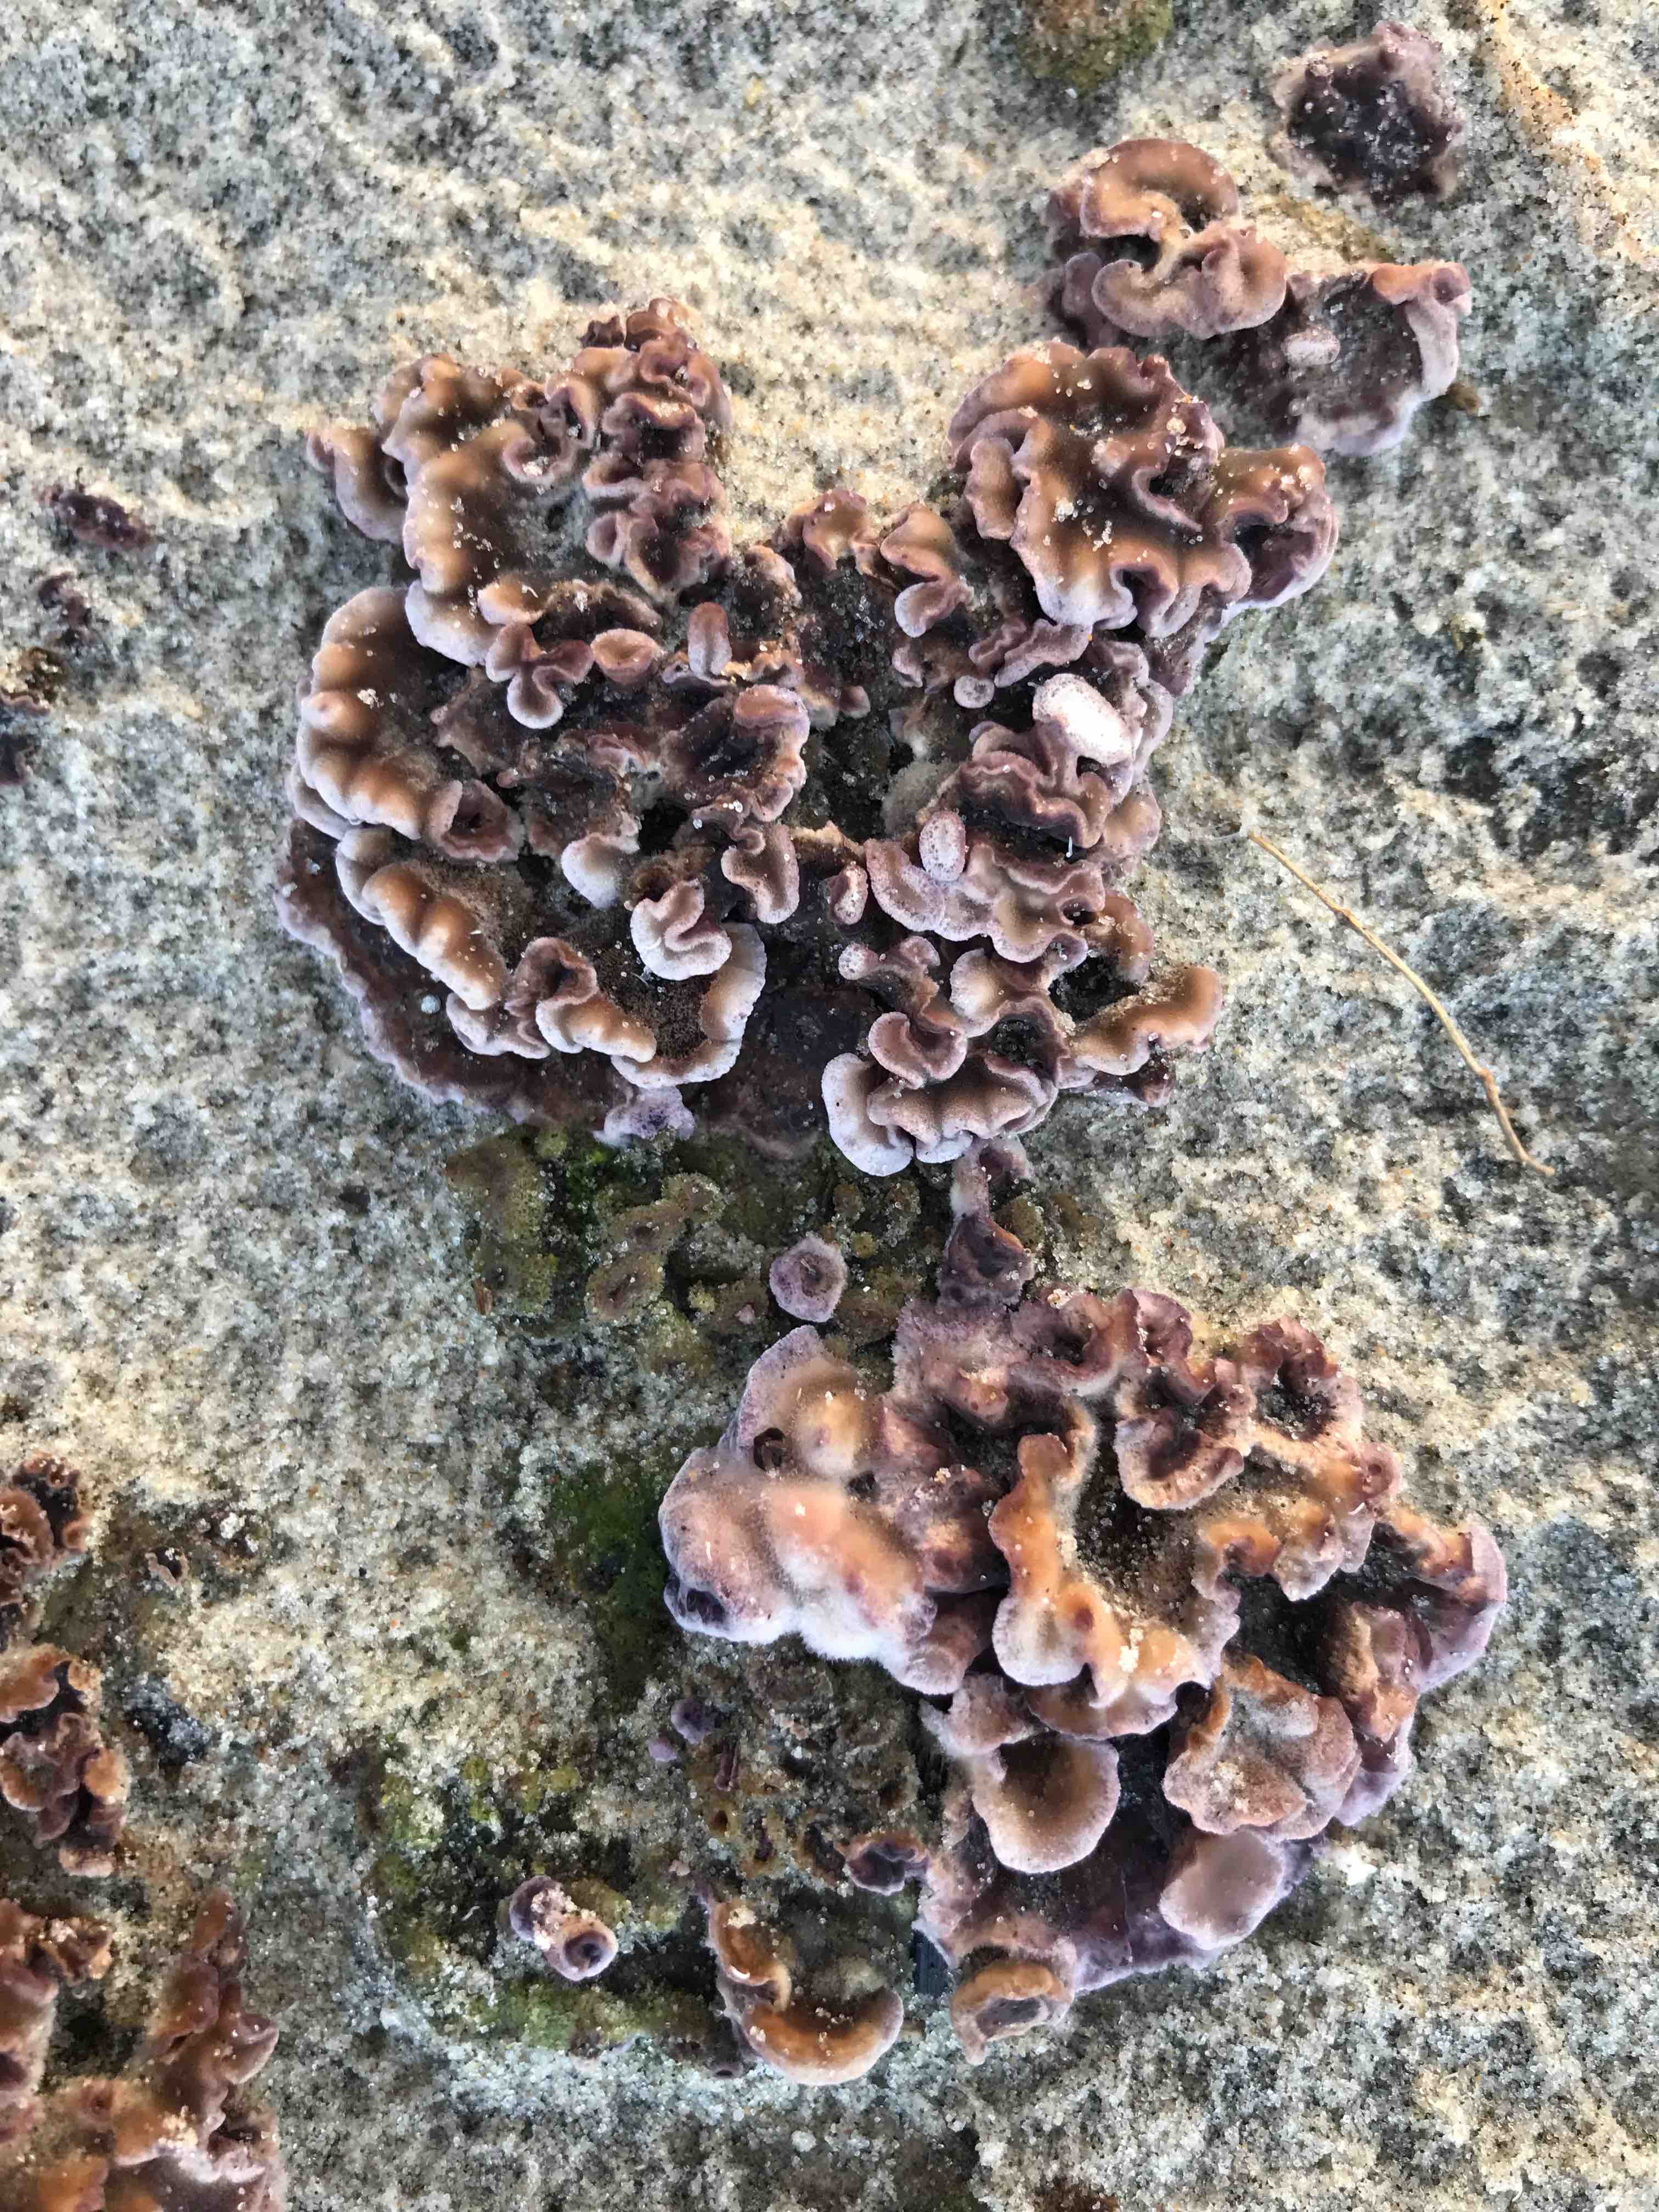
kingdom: Fungi
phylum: Basidiomycota
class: Agaricomycetes
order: Agaricales
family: Cyphellaceae
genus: Chondrostereum
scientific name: Chondrostereum purpureum
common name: purpurlædersvamp
